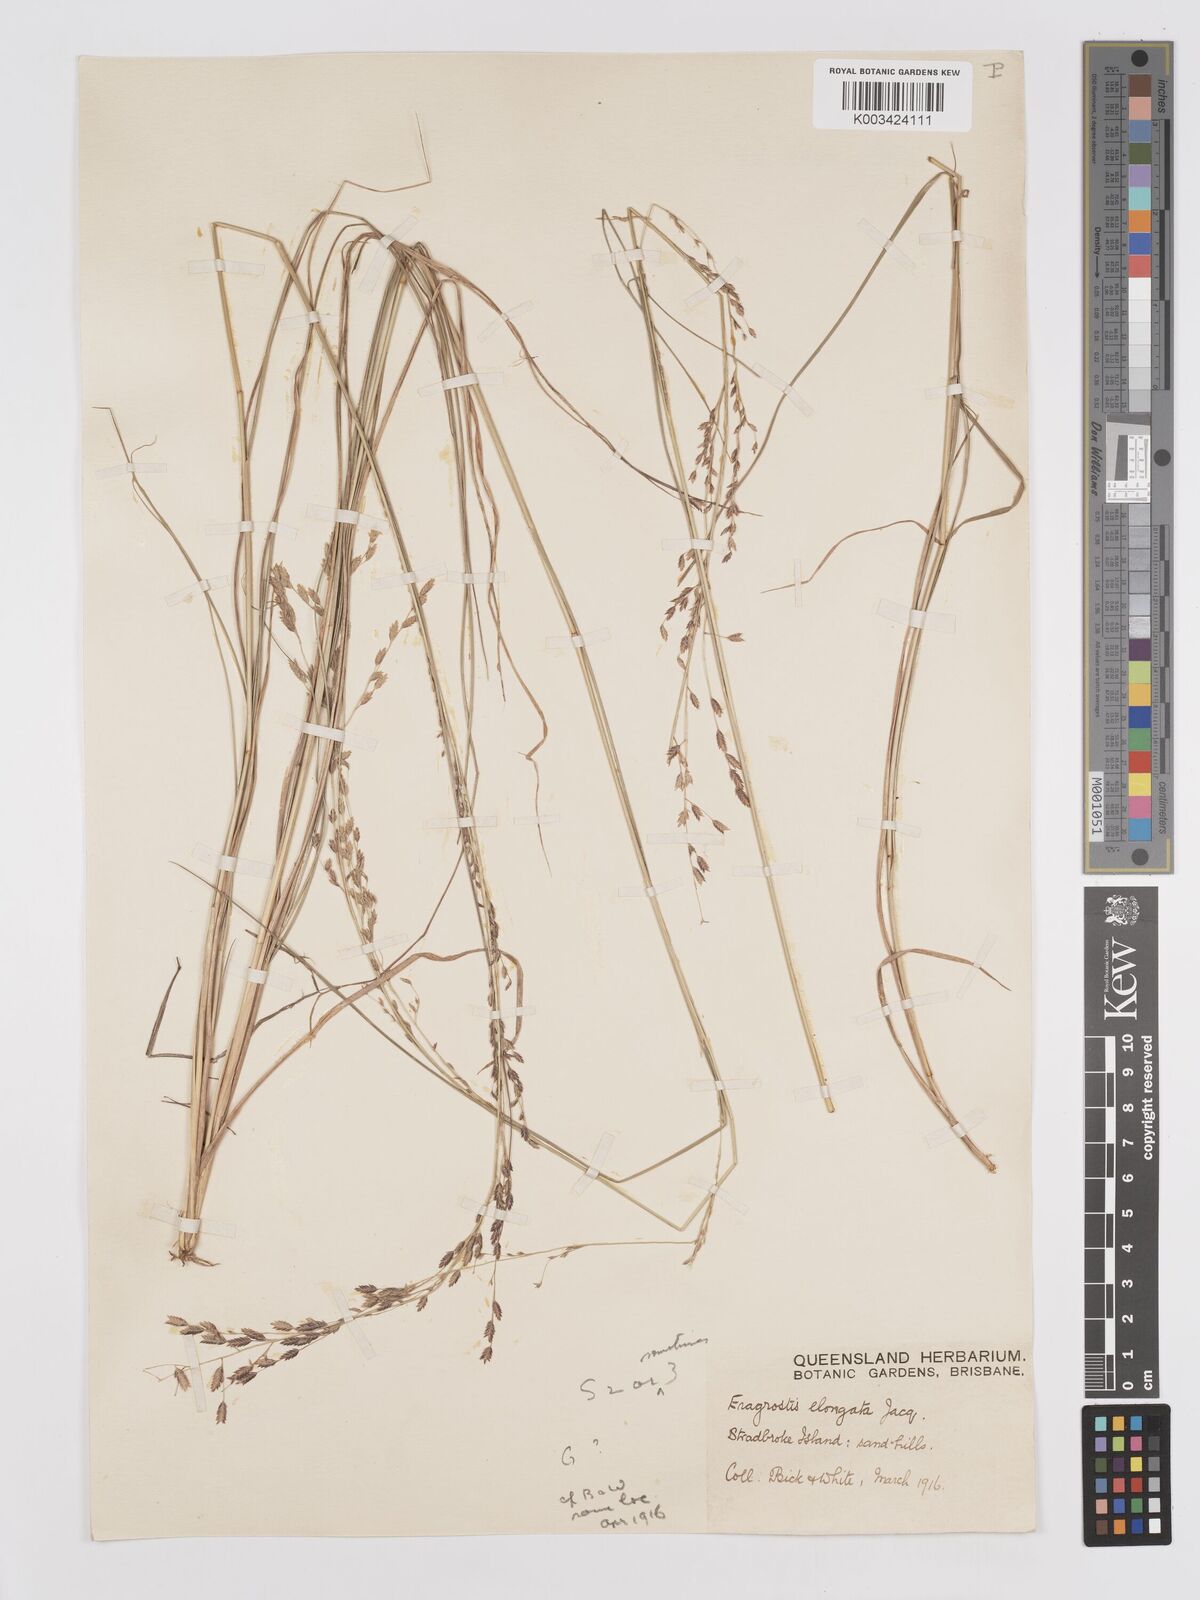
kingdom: Plantae
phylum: Tracheophyta
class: Liliopsida
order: Poales
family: Poaceae
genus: Eragrostis
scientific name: Eragrostis brownii
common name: Lovegrass
